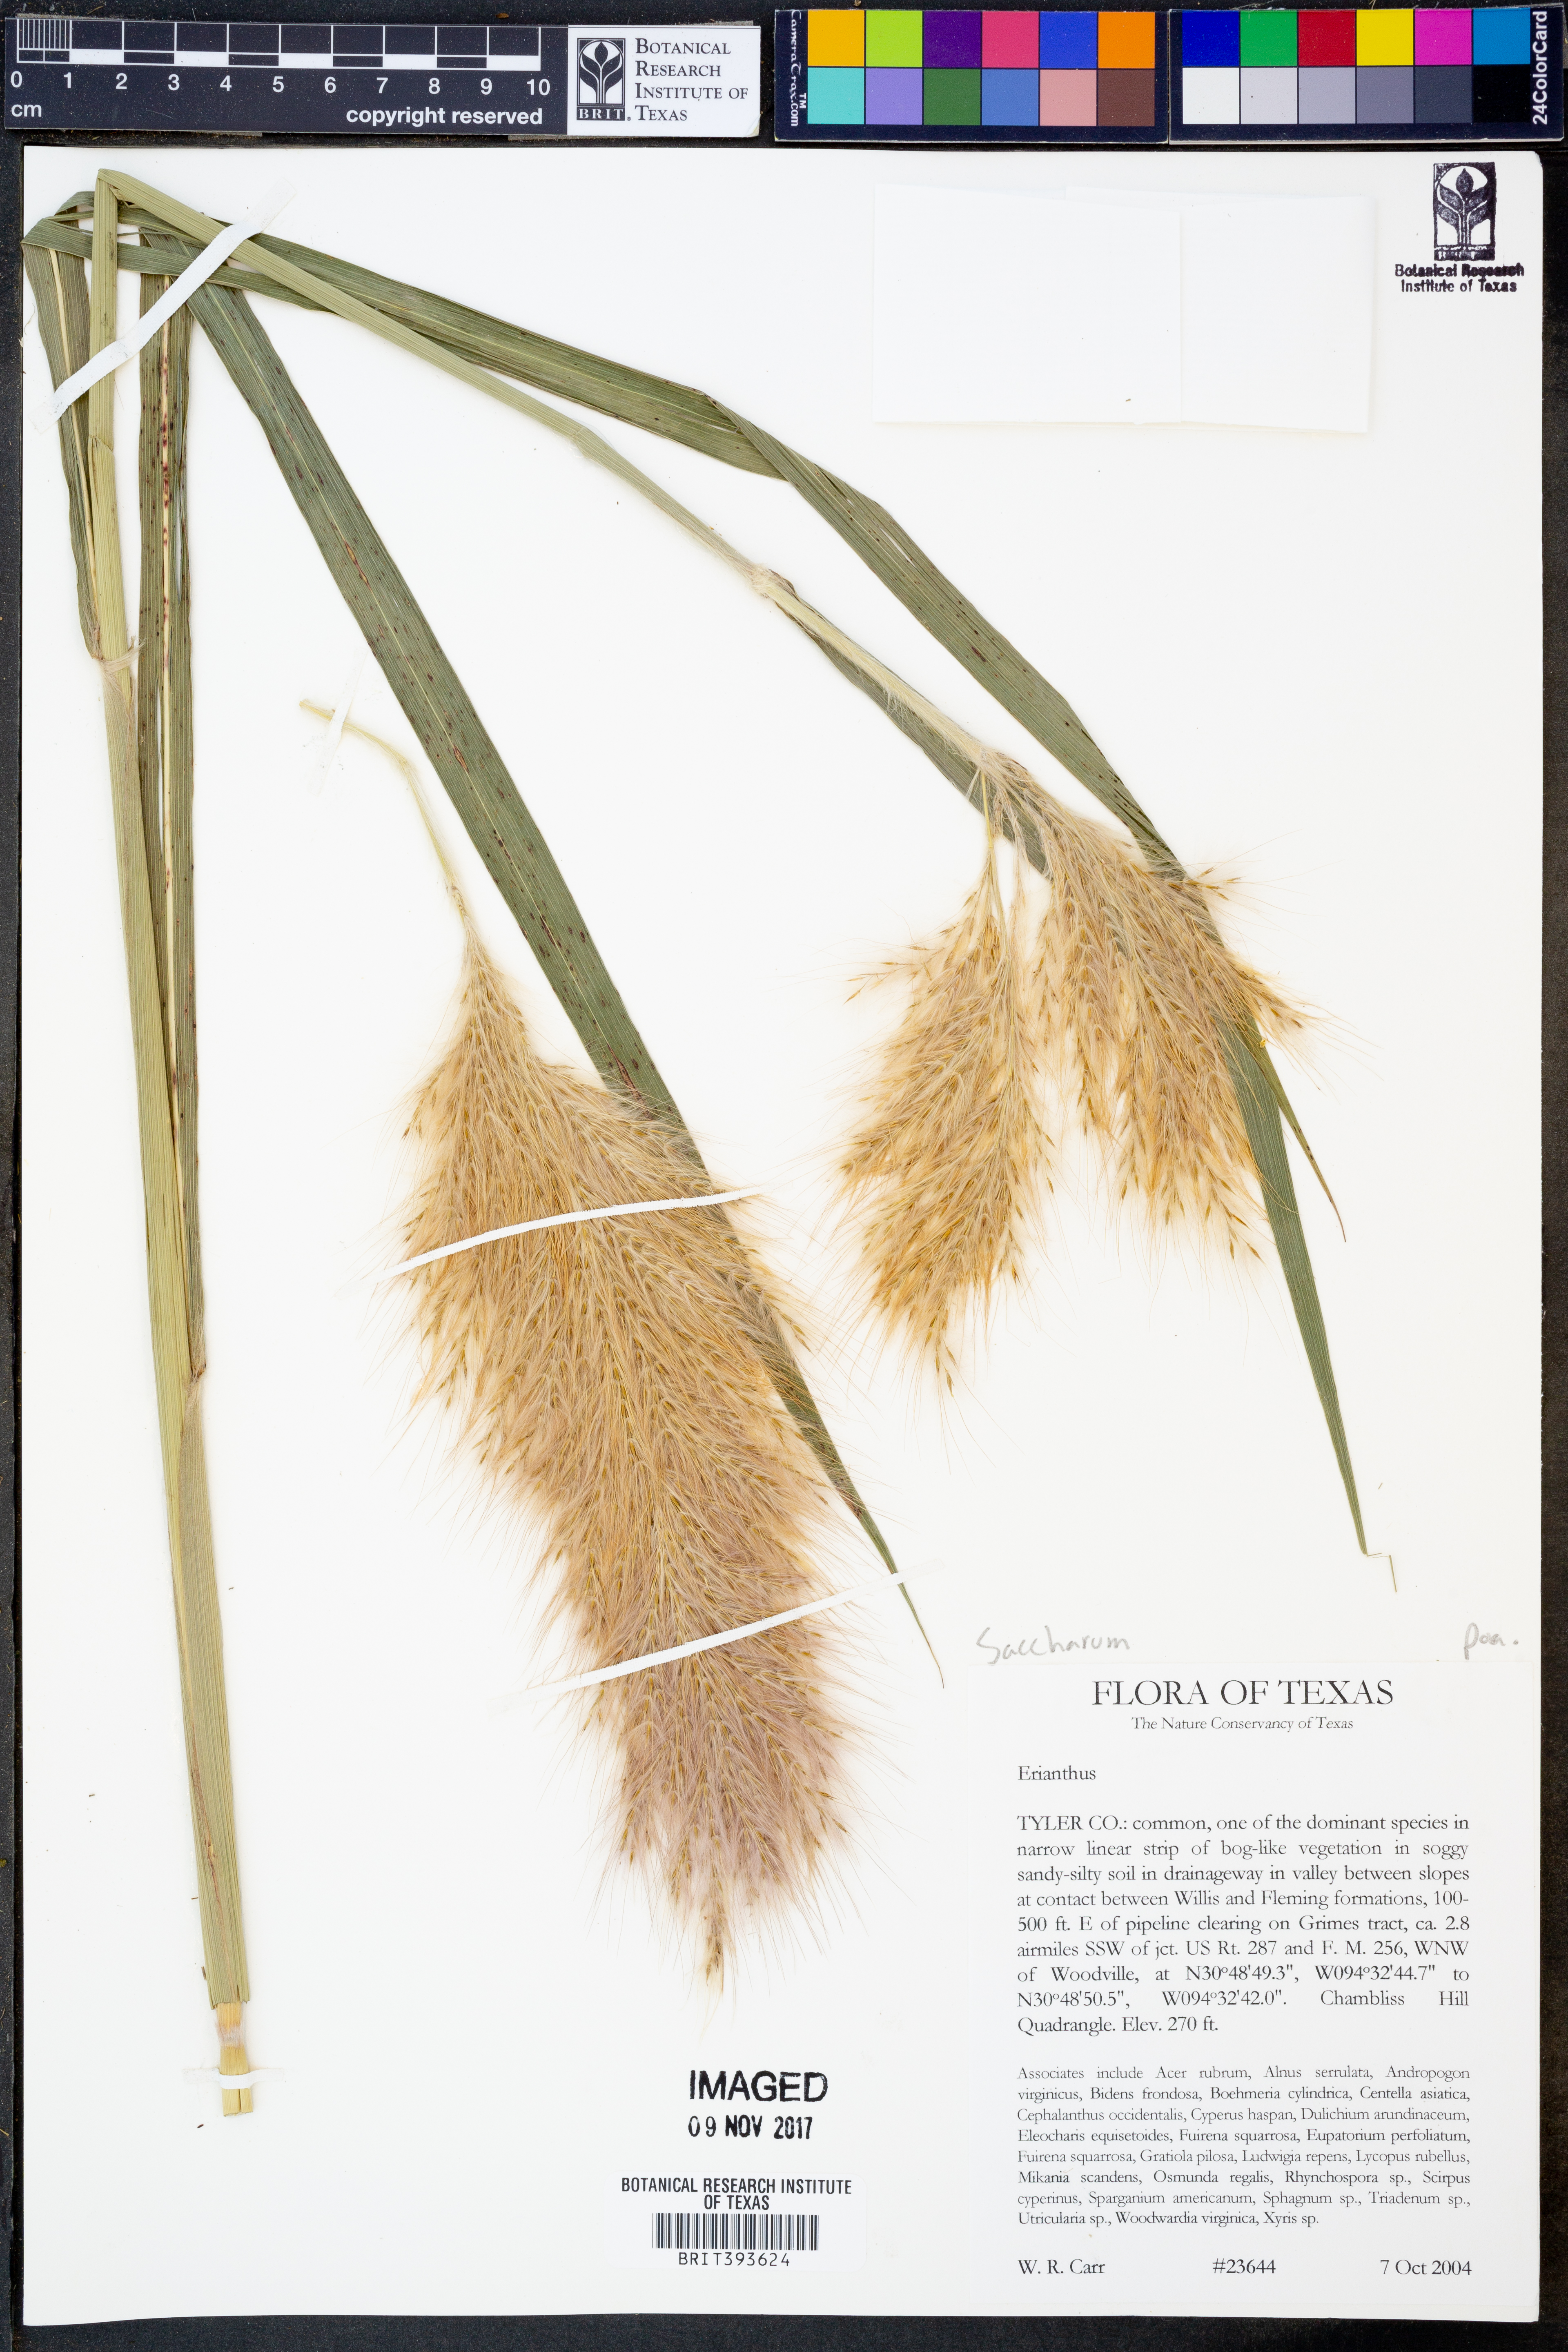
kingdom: Plantae
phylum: Tracheophyta
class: Liliopsida
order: Poales
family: Poaceae
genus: Saccharum
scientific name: Saccharum
